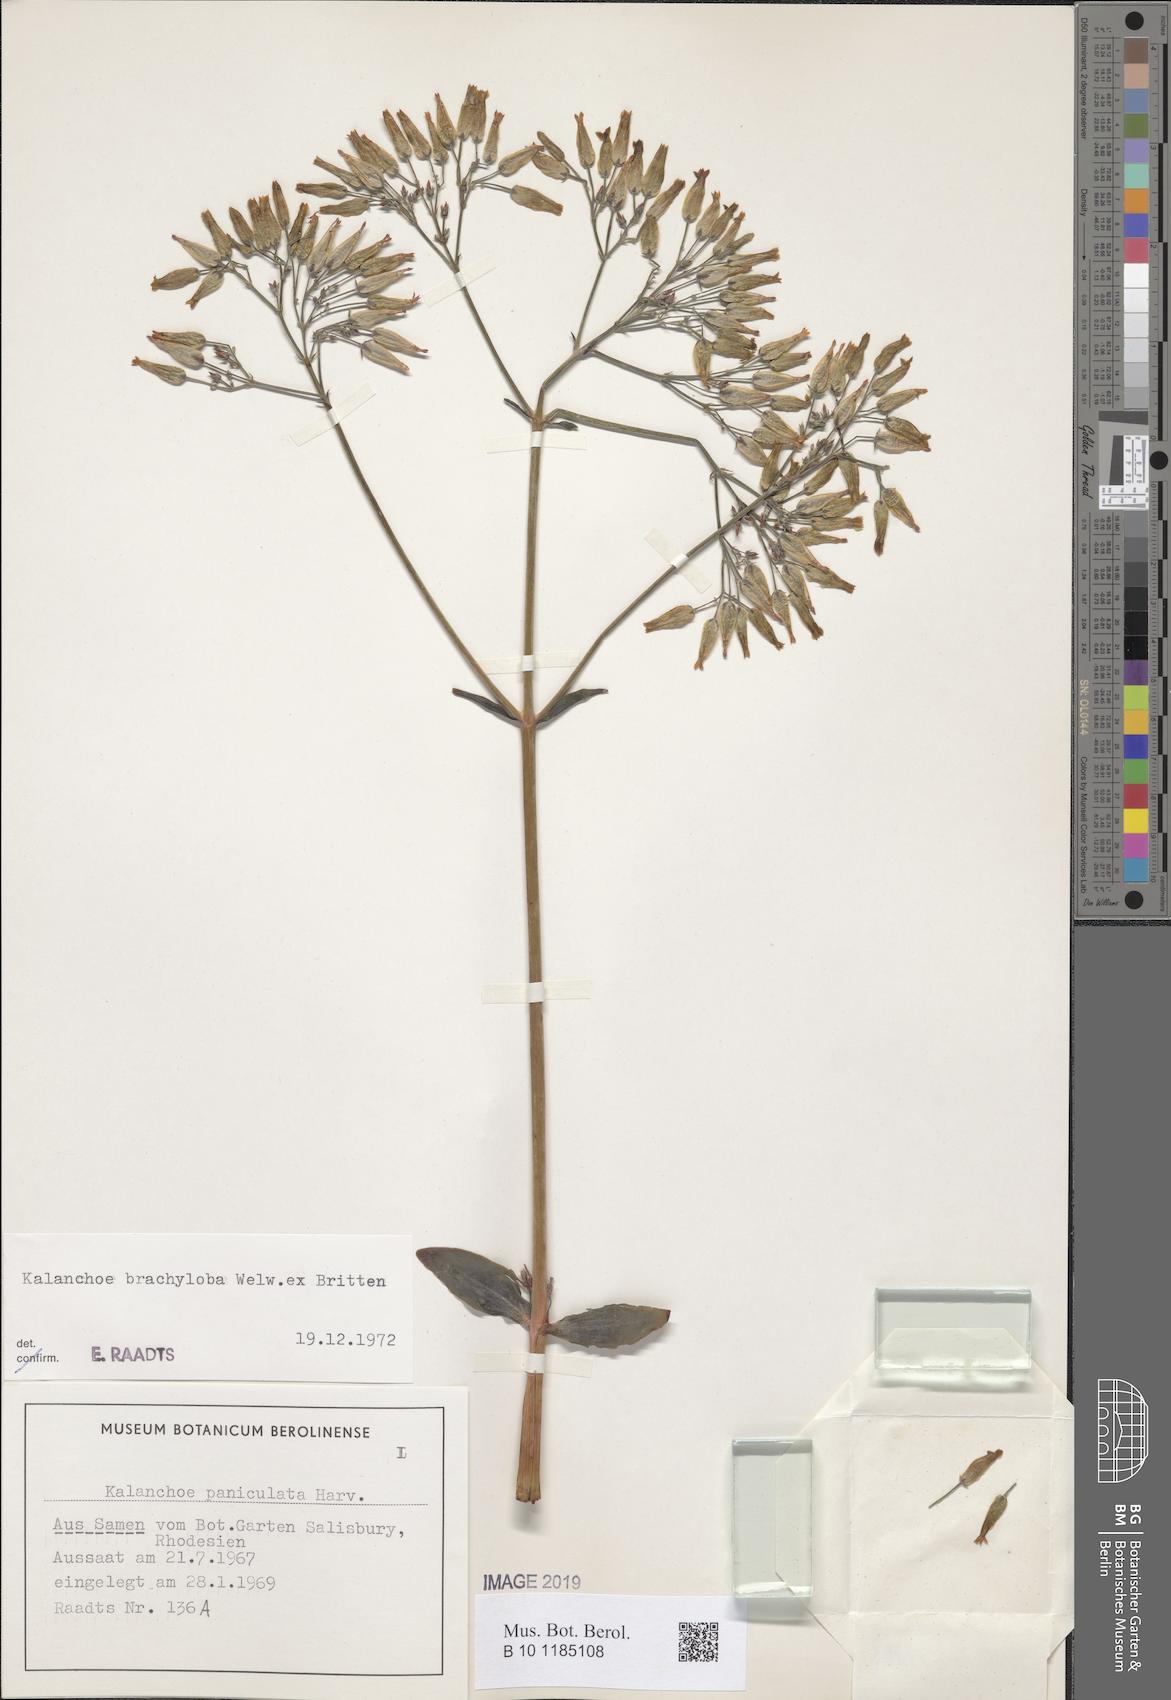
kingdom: Plantae
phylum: Tracheophyta
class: Magnoliopsida
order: Saxifragales
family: Crassulaceae
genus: Kalanchoe
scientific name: Kalanchoe brachyloba
